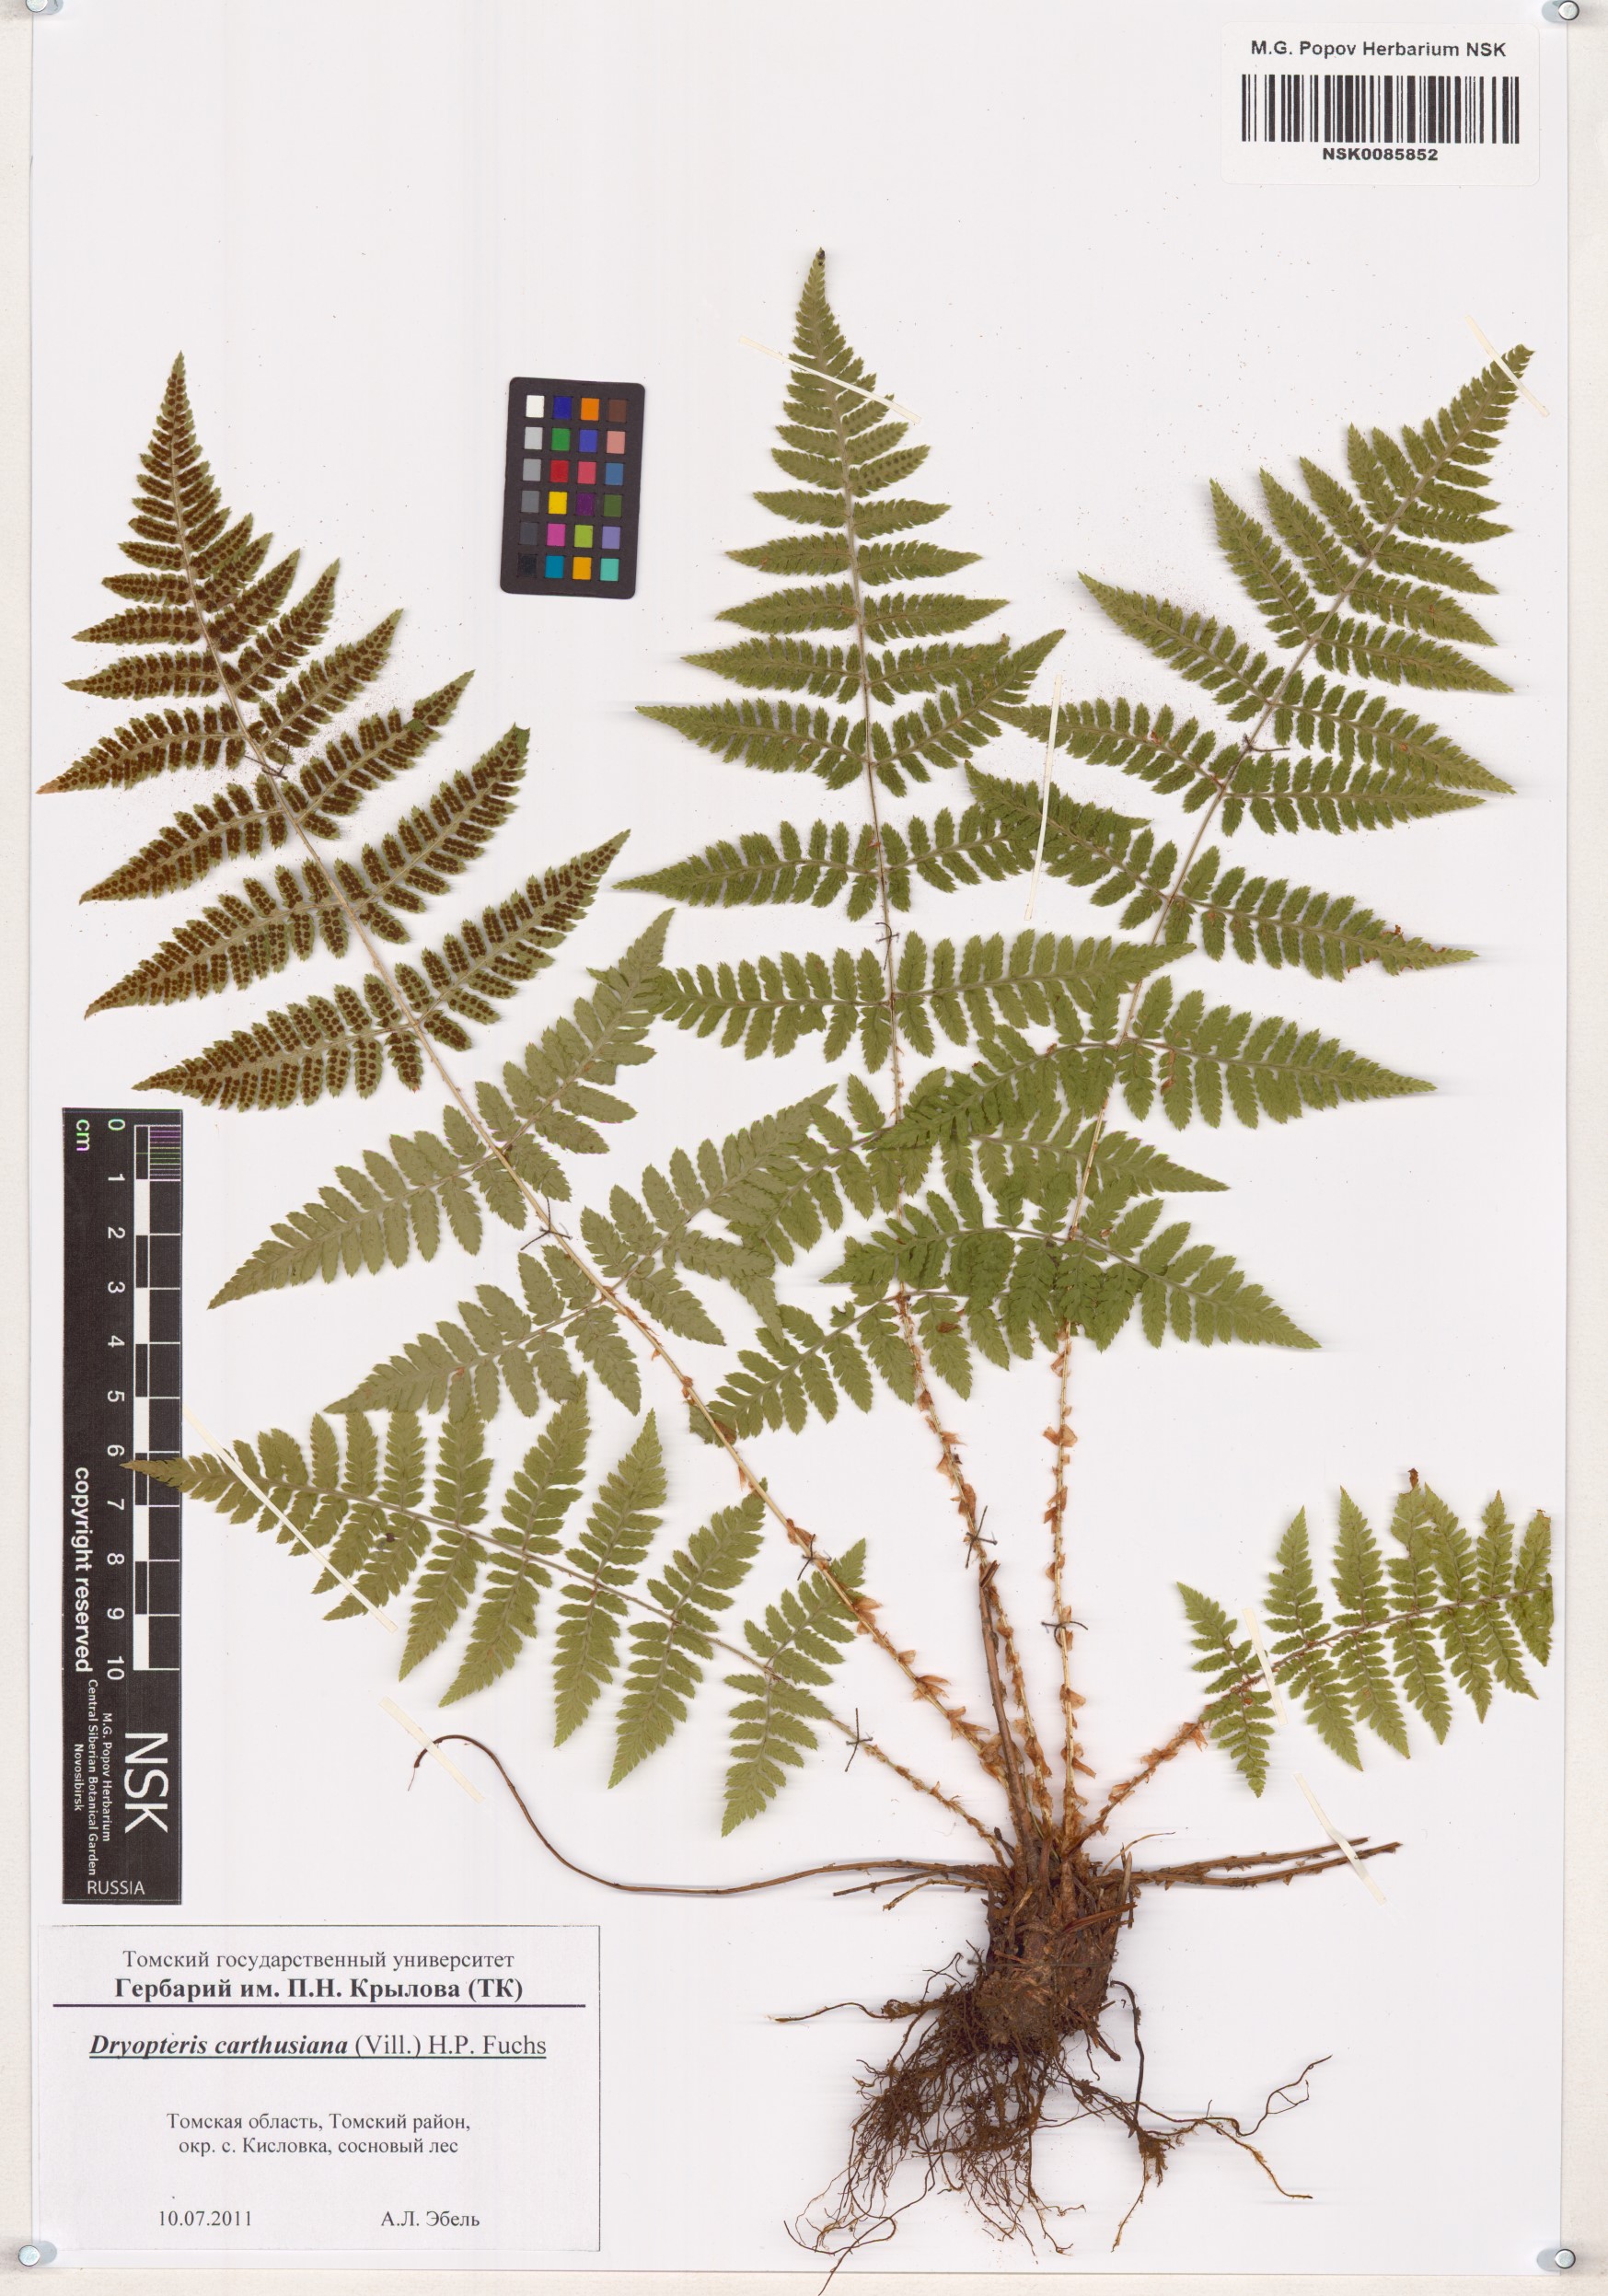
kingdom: Plantae
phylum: Tracheophyta
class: Polypodiopsida
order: Polypodiales
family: Dryopteridaceae
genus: Dryopteris
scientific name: Dryopteris carthusiana
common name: Narrow buckler-fern
